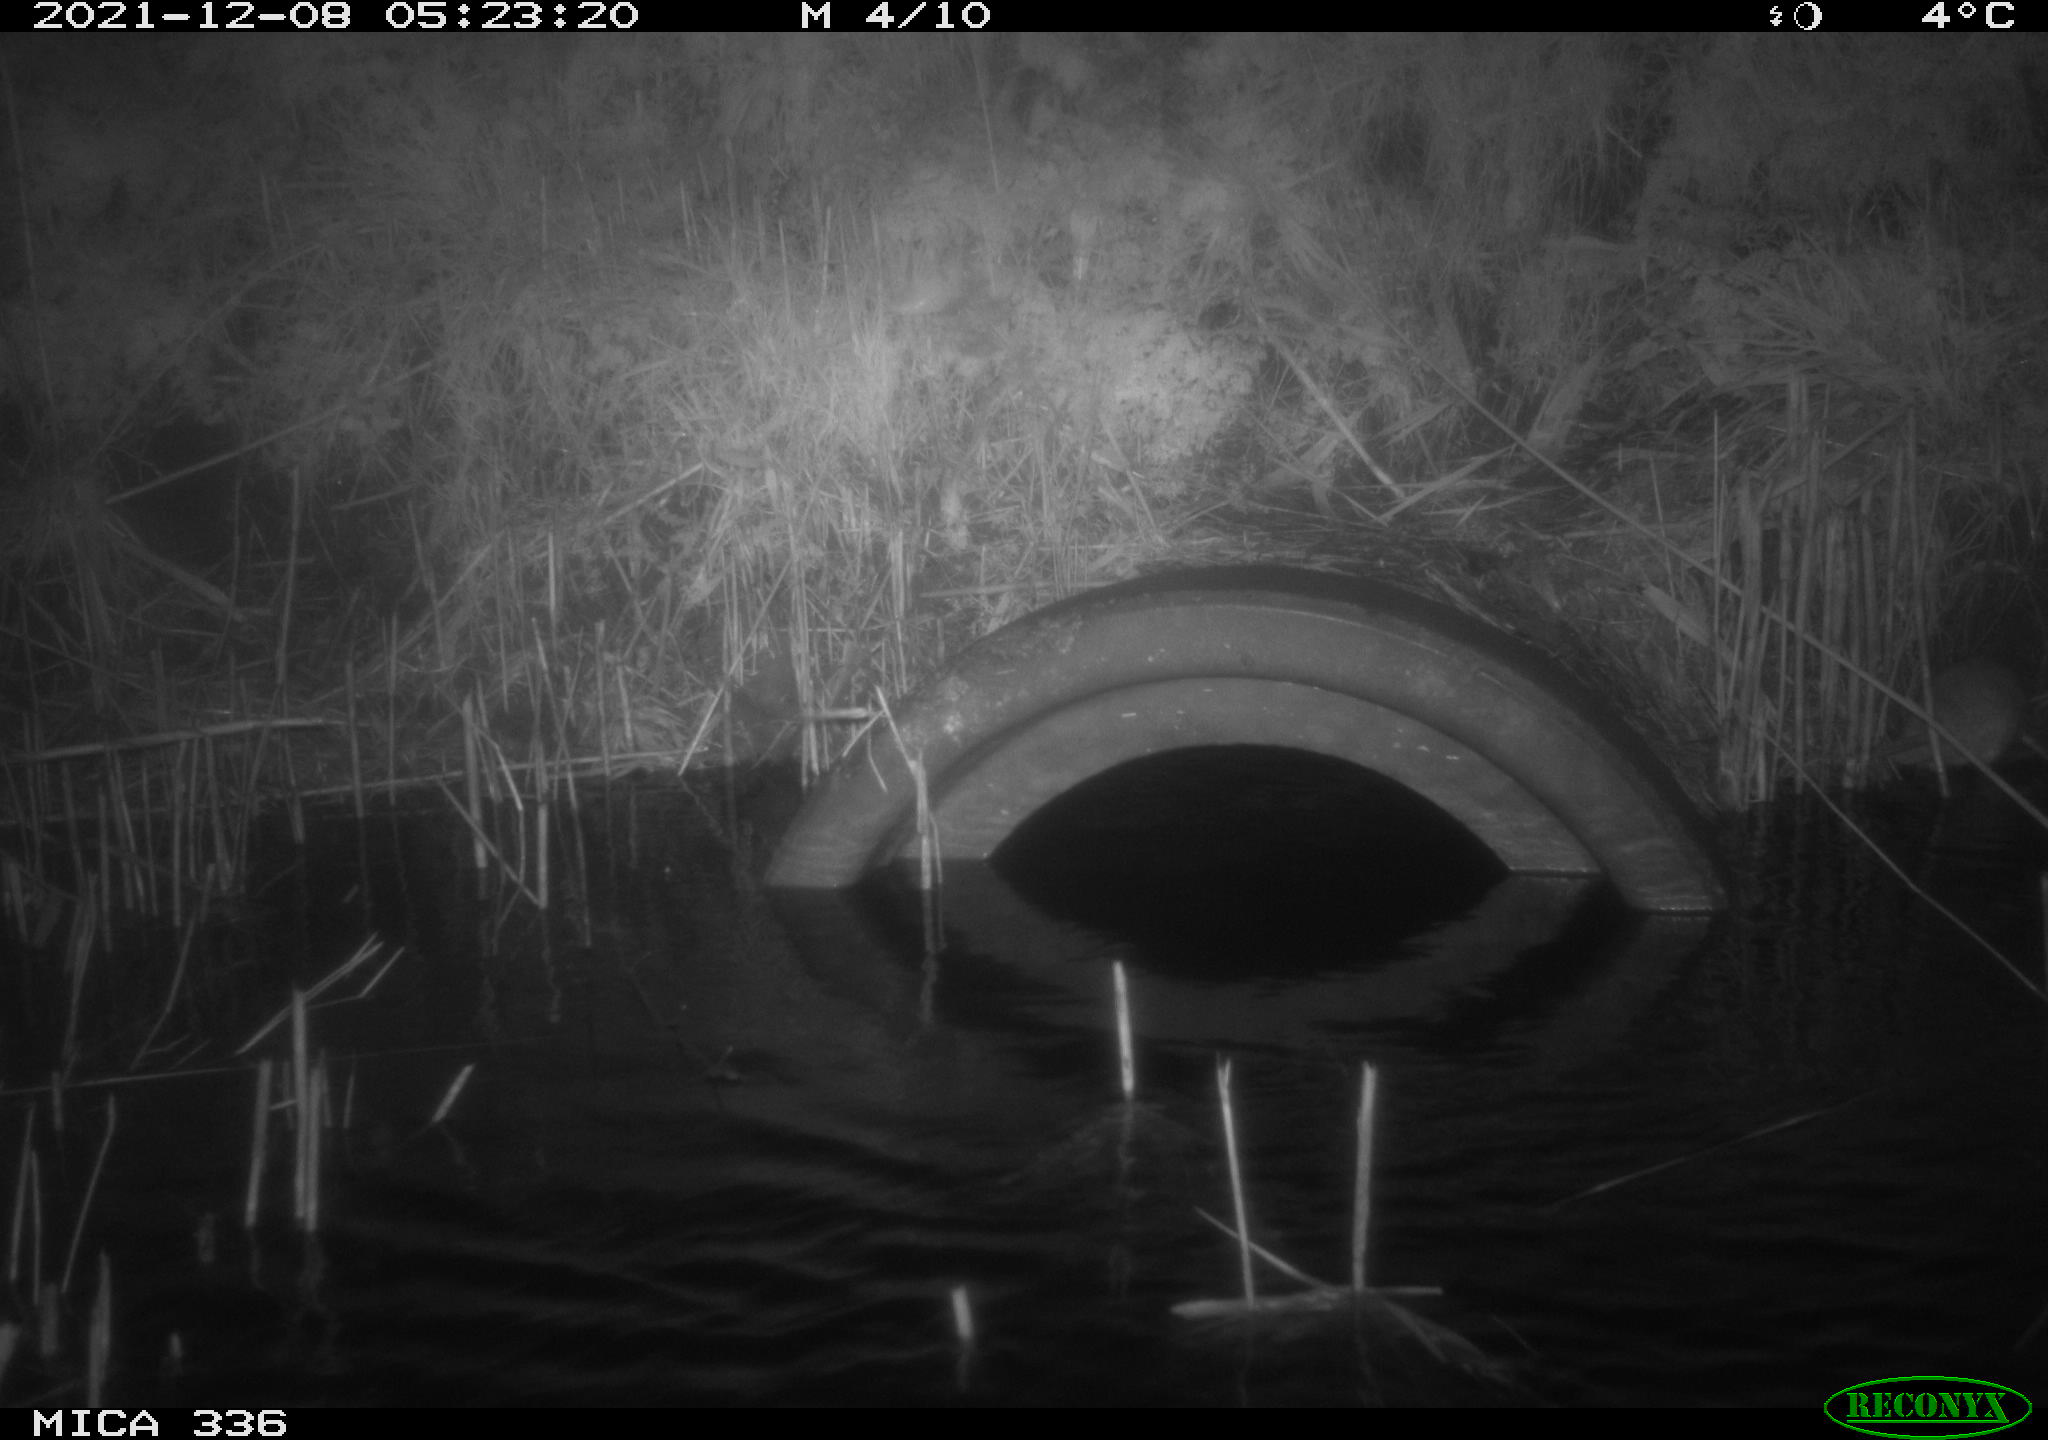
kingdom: Animalia
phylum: Chordata
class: Mammalia
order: Rodentia
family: Muridae
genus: Rattus
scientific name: Rattus norvegicus
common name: Brown rat
